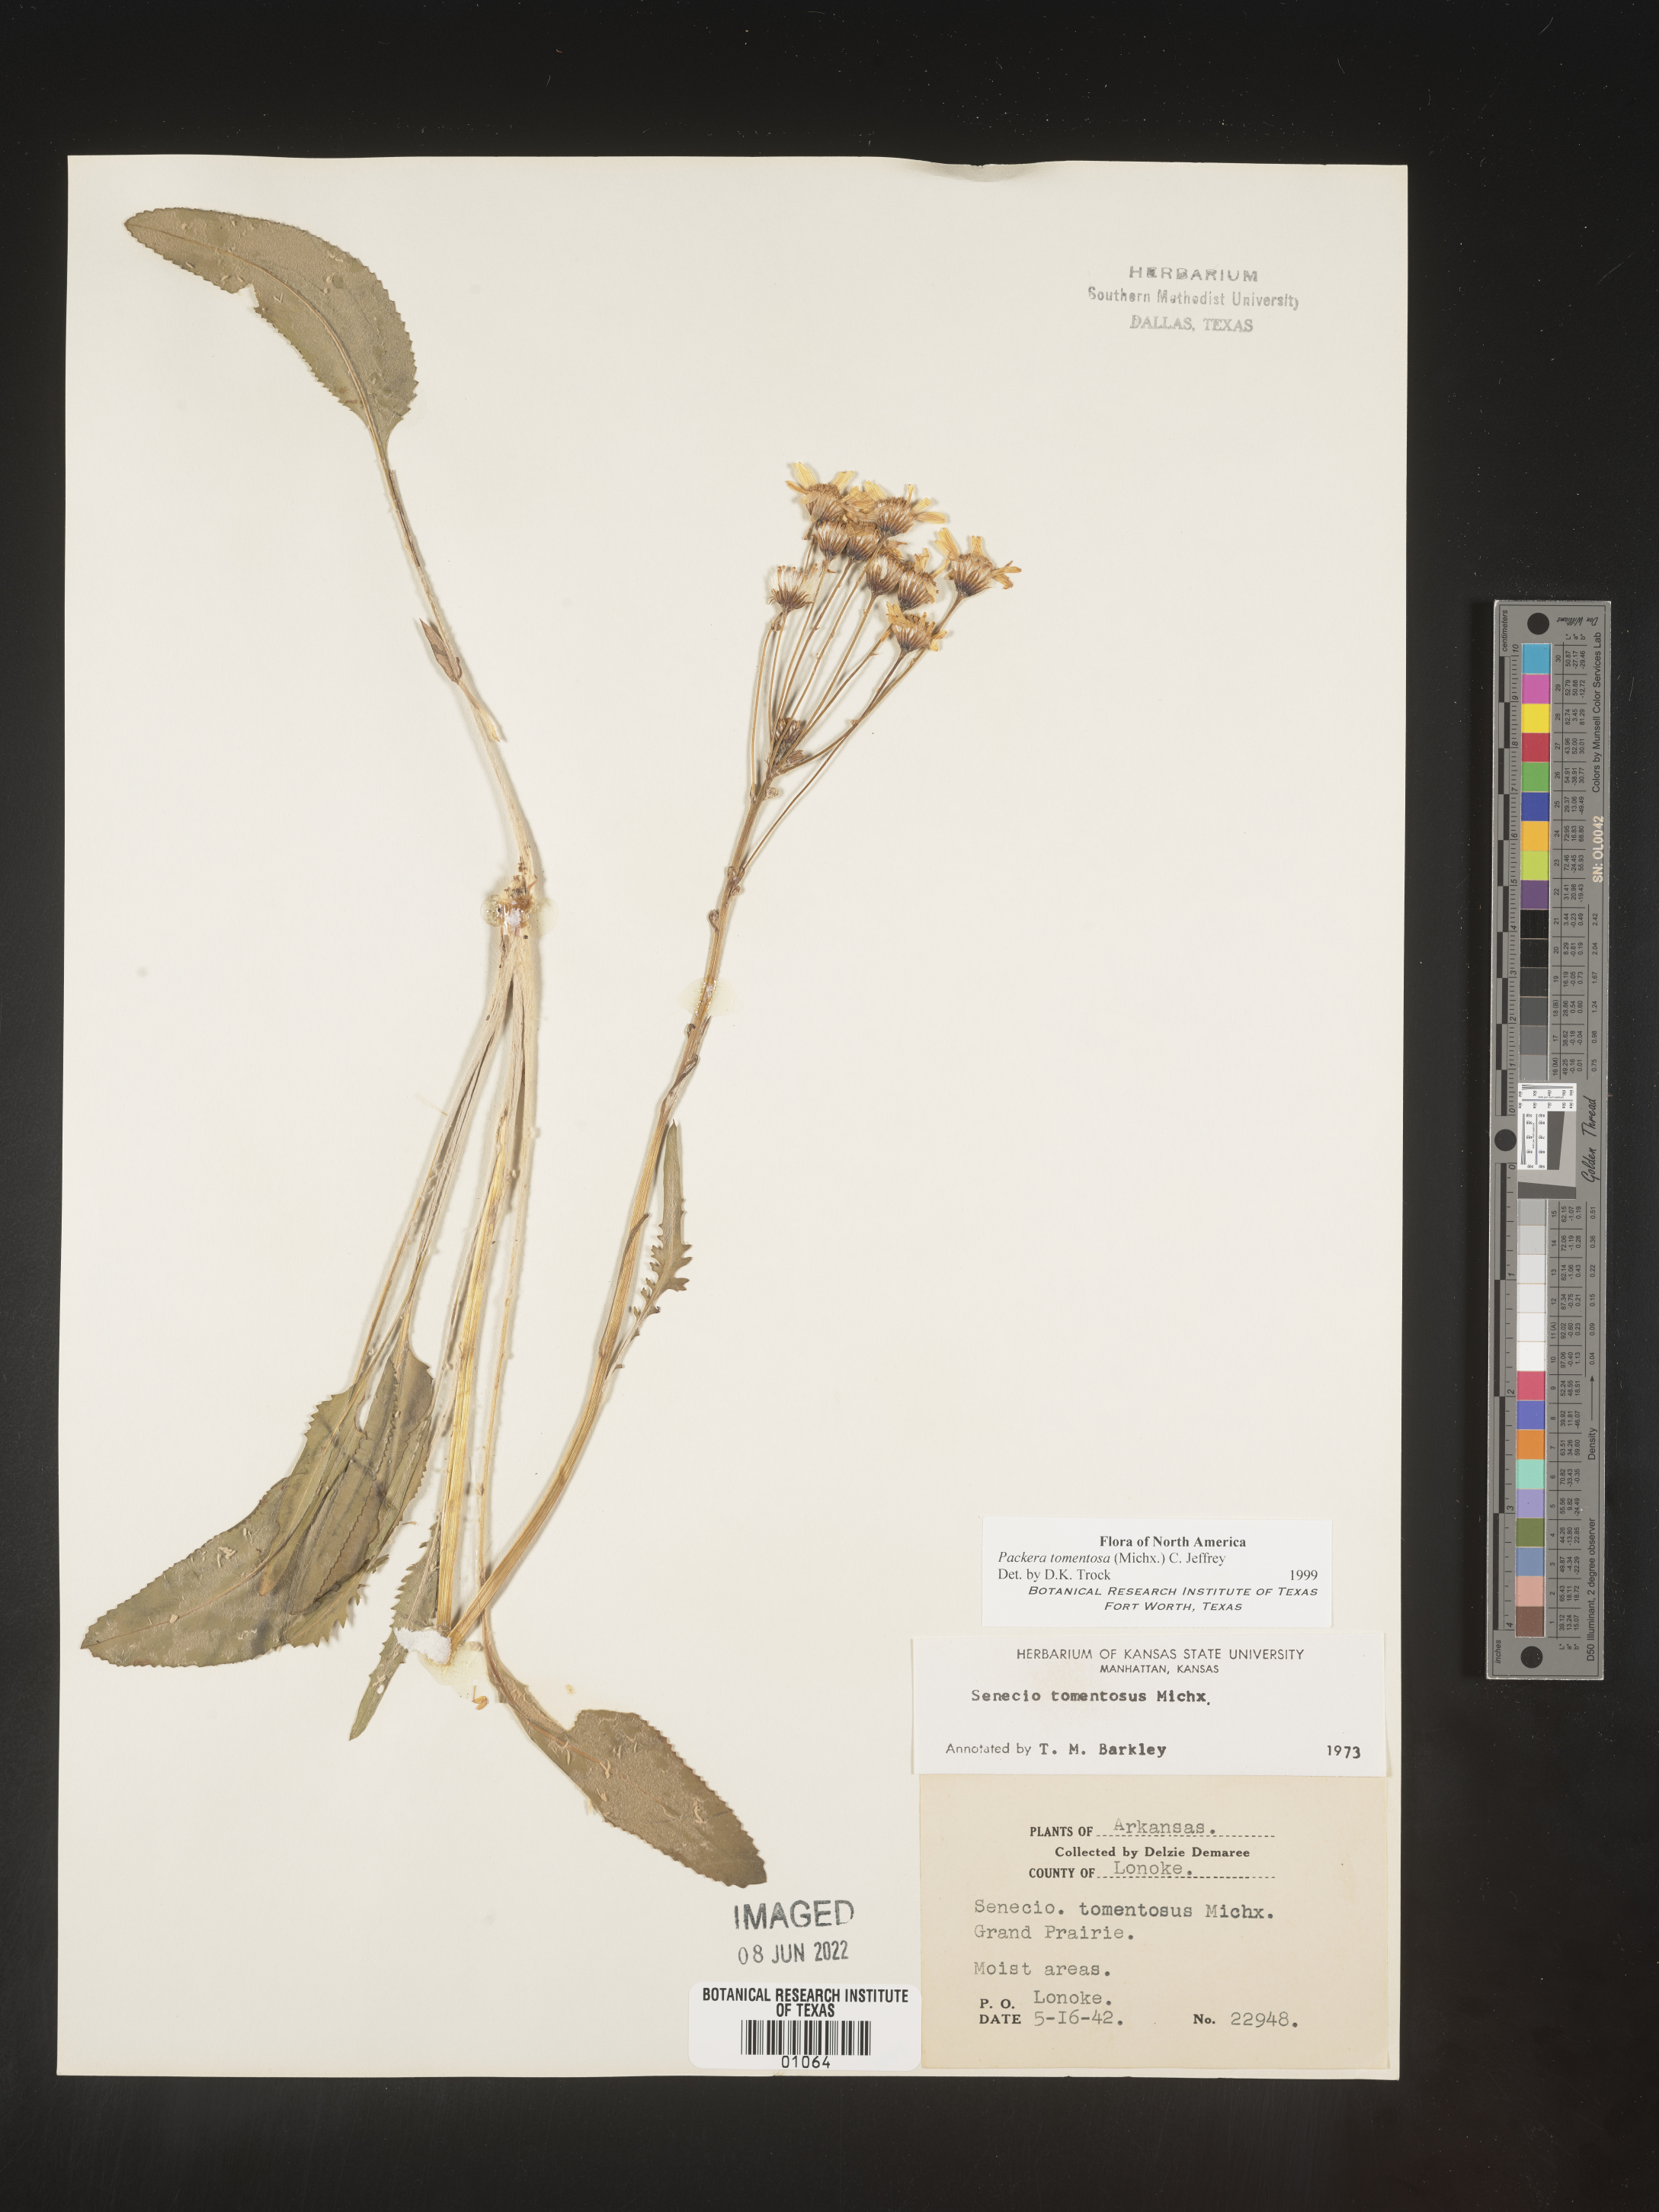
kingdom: Plantae
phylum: Tracheophyta
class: Magnoliopsida
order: Asterales
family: Asteraceae
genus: Packera
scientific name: Packera dubia
